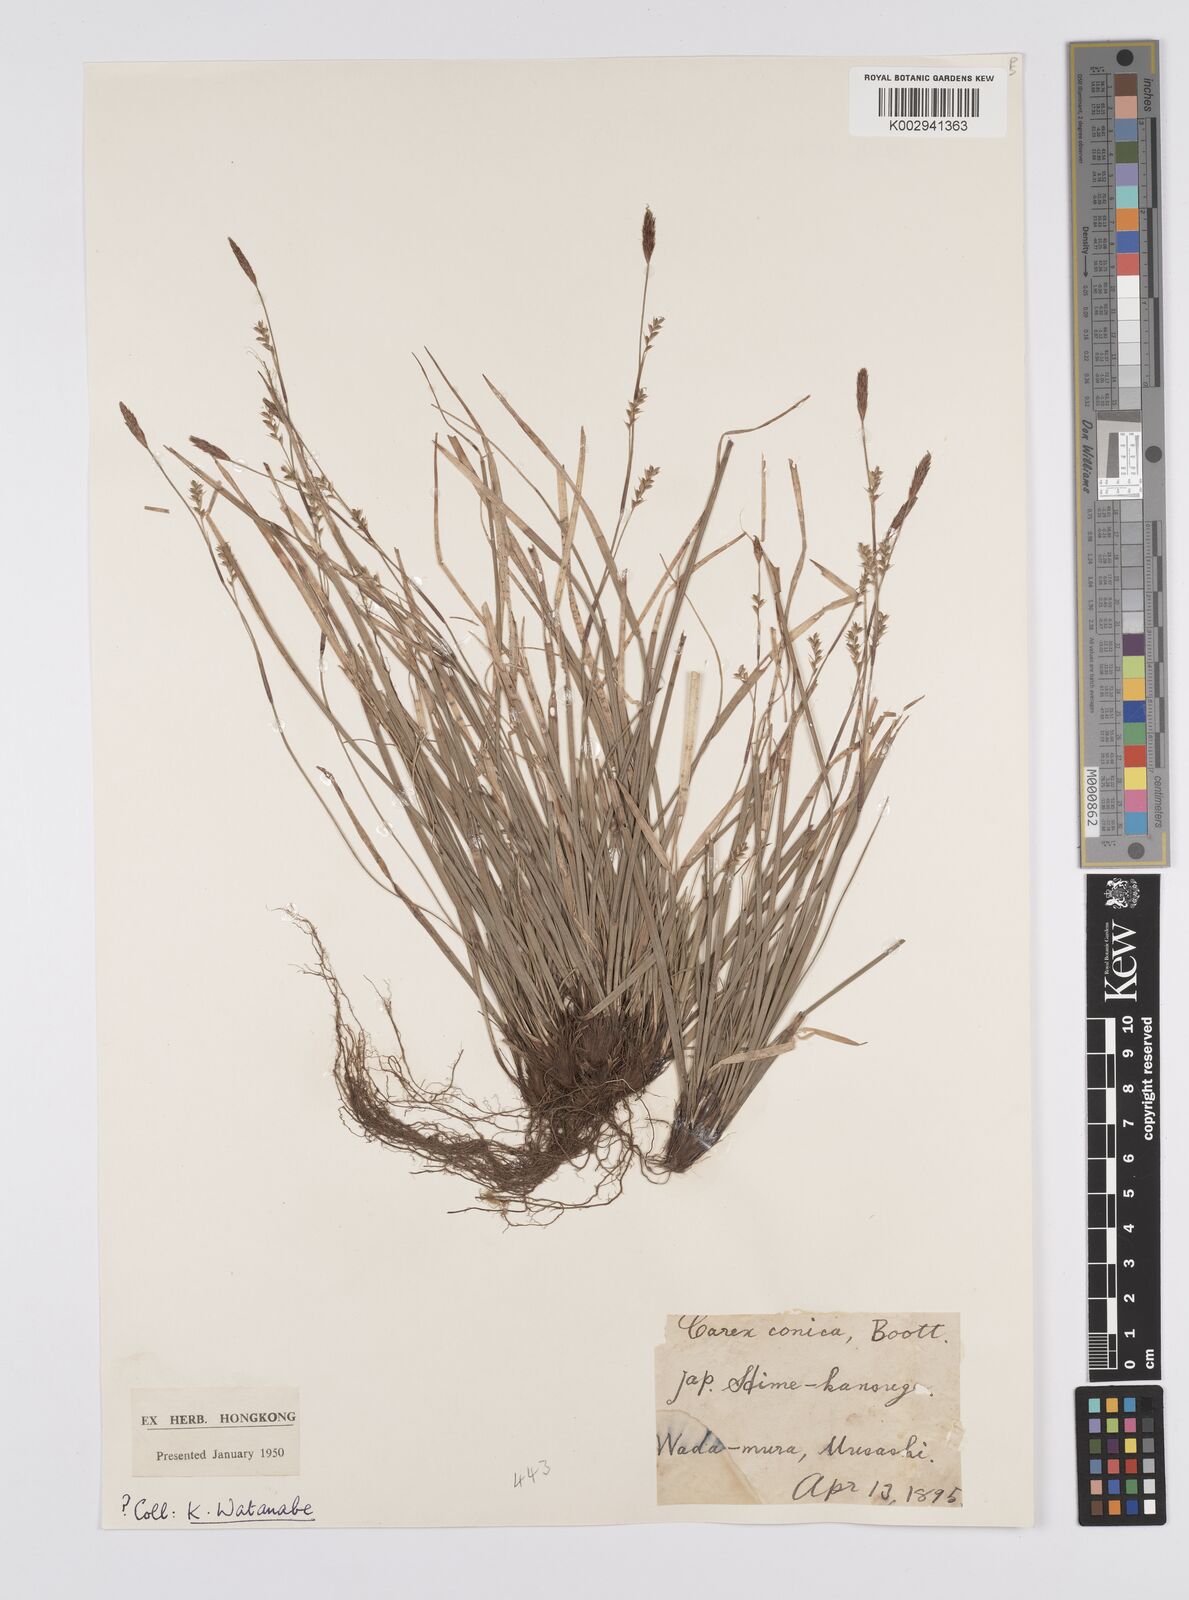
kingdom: Plantae
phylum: Tracheophyta
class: Liliopsida
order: Poales
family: Cyperaceae
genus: Carex
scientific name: Carex conica
